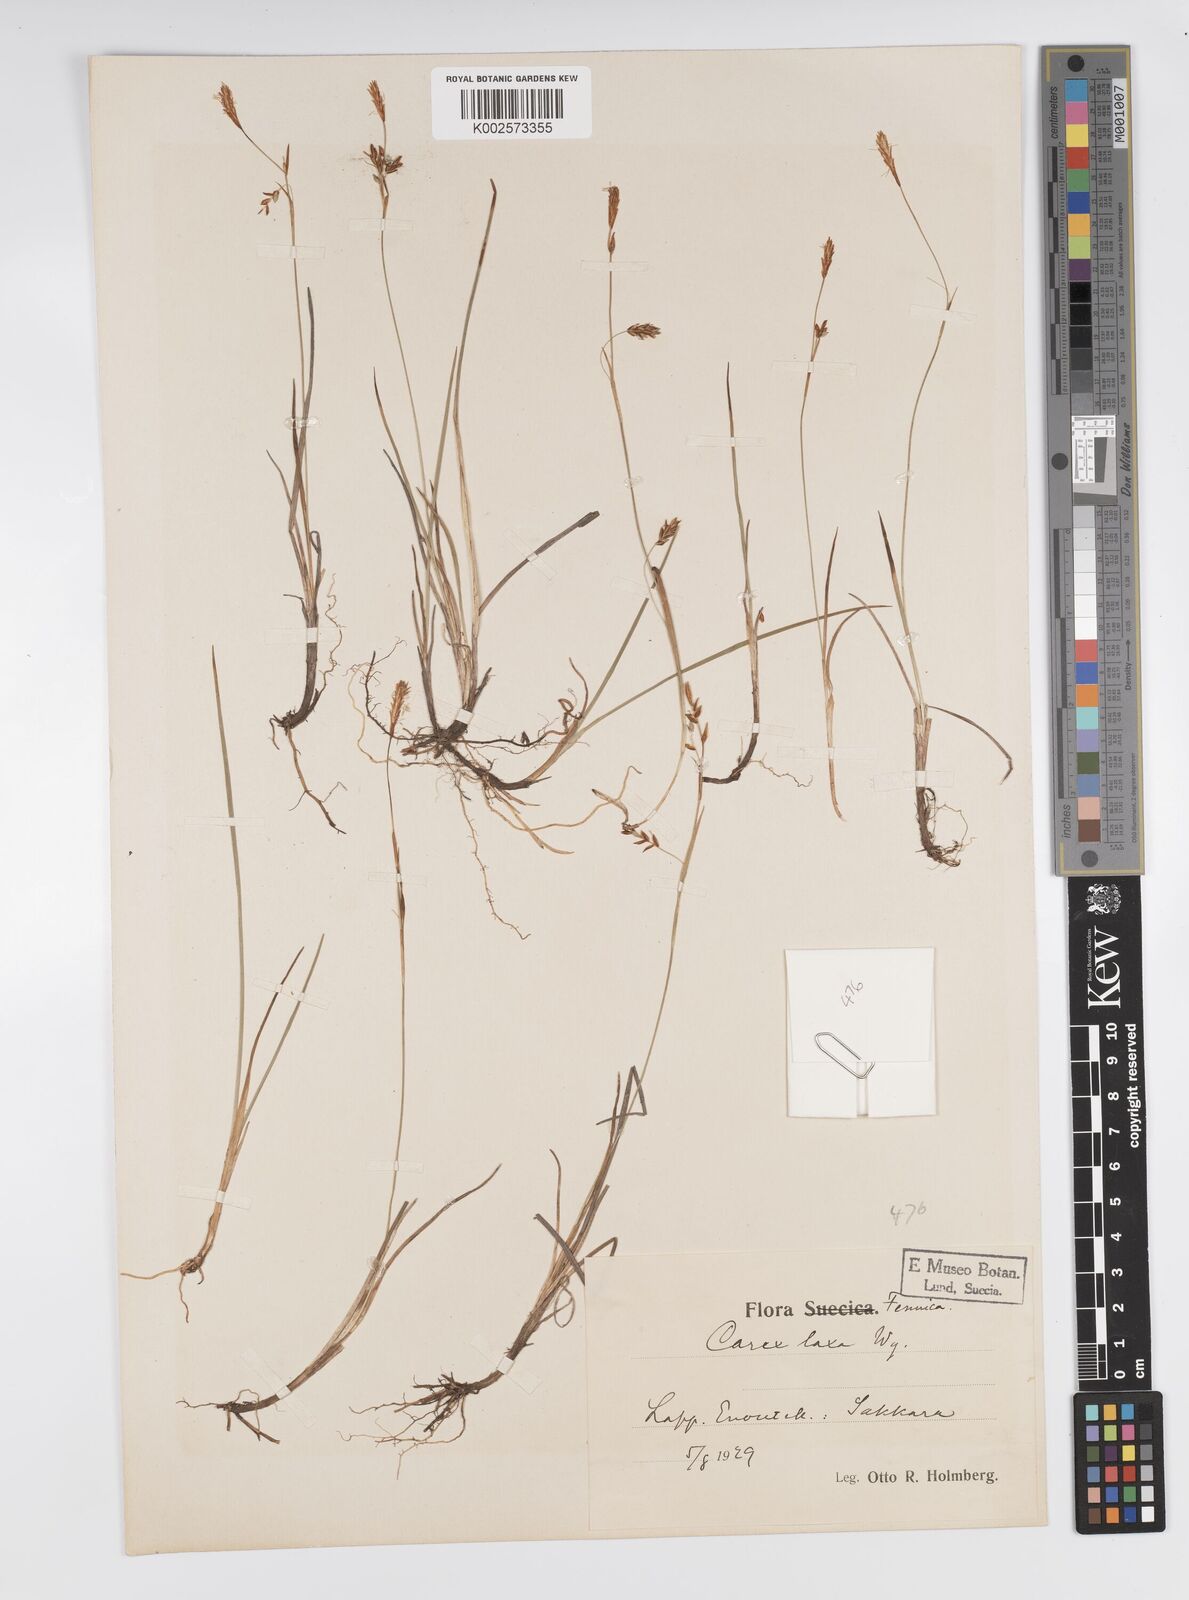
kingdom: Plantae
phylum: Tracheophyta
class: Liliopsida
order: Poales
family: Cyperaceae
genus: Carex
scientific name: Carex laxa
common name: Weak sedge
